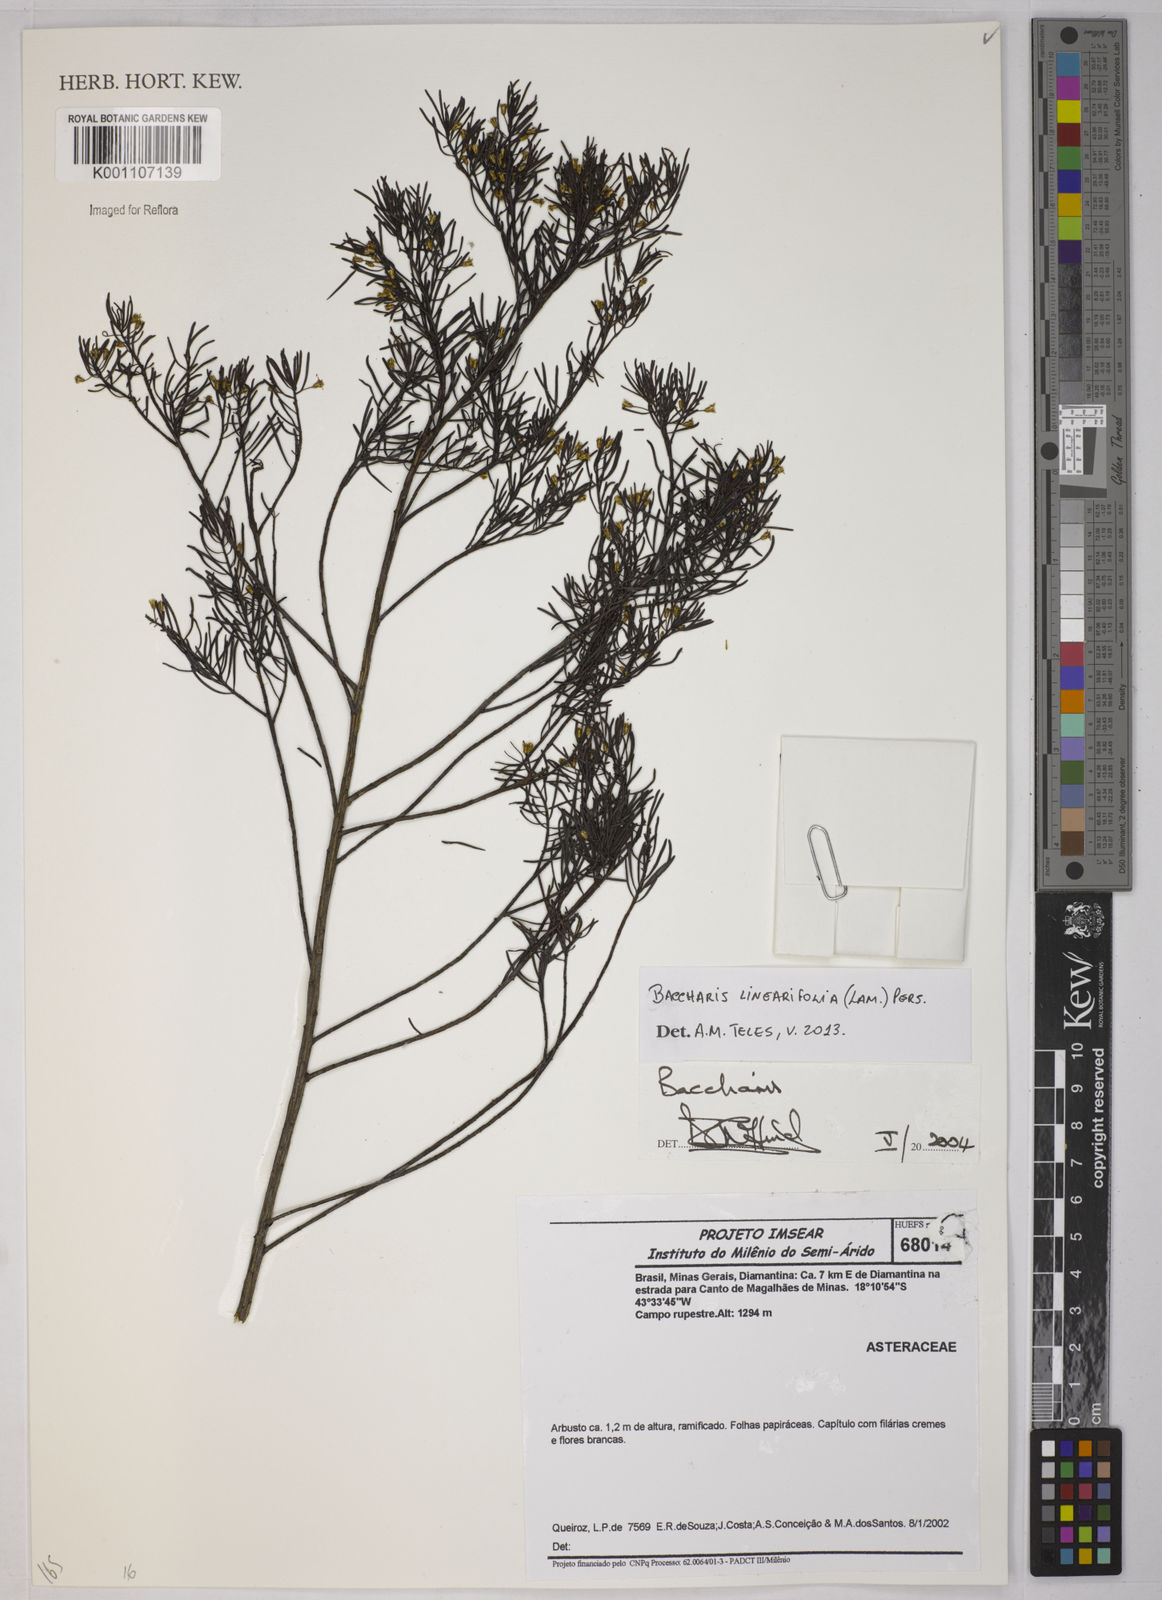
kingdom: Plantae
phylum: Tracheophyta
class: Magnoliopsida
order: Asterales
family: Asteraceae
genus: Baccharis
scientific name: Baccharis linearifolia
